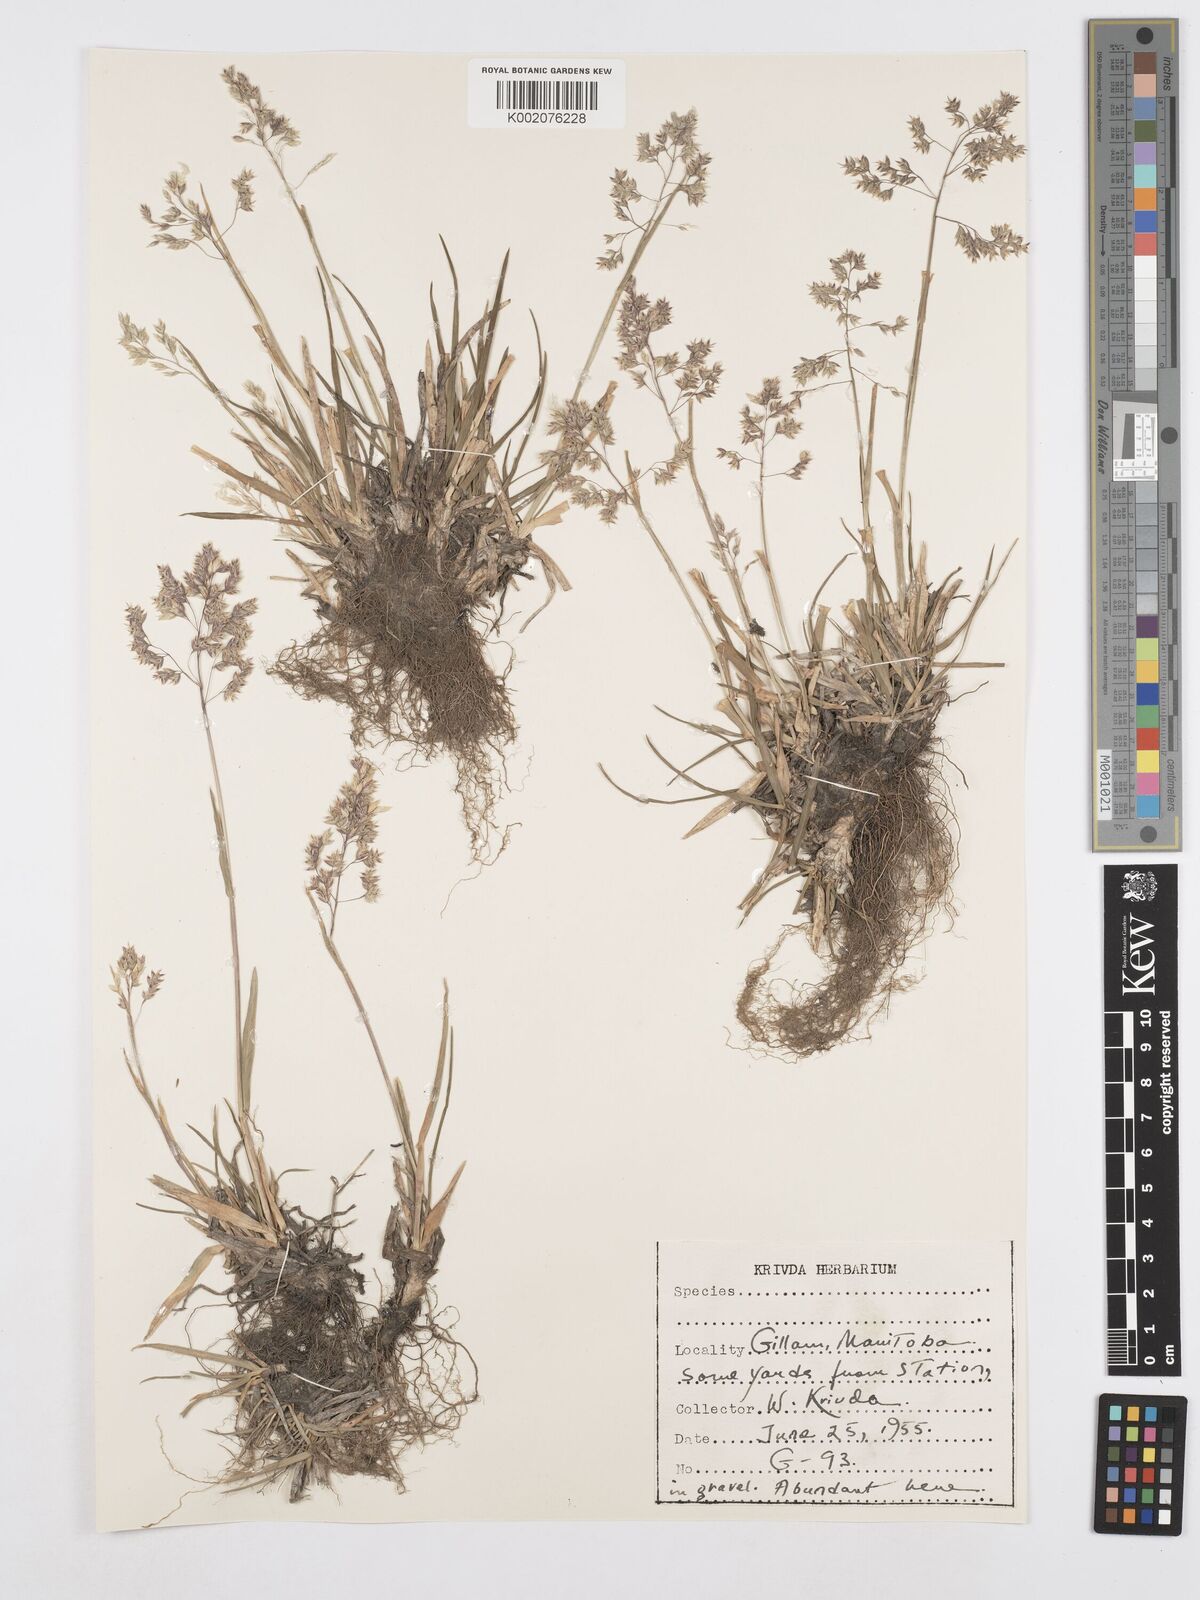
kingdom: Plantae
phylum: Tracheophyta
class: Liliopsida
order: Poales
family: Poaceae
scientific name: Poaceae
